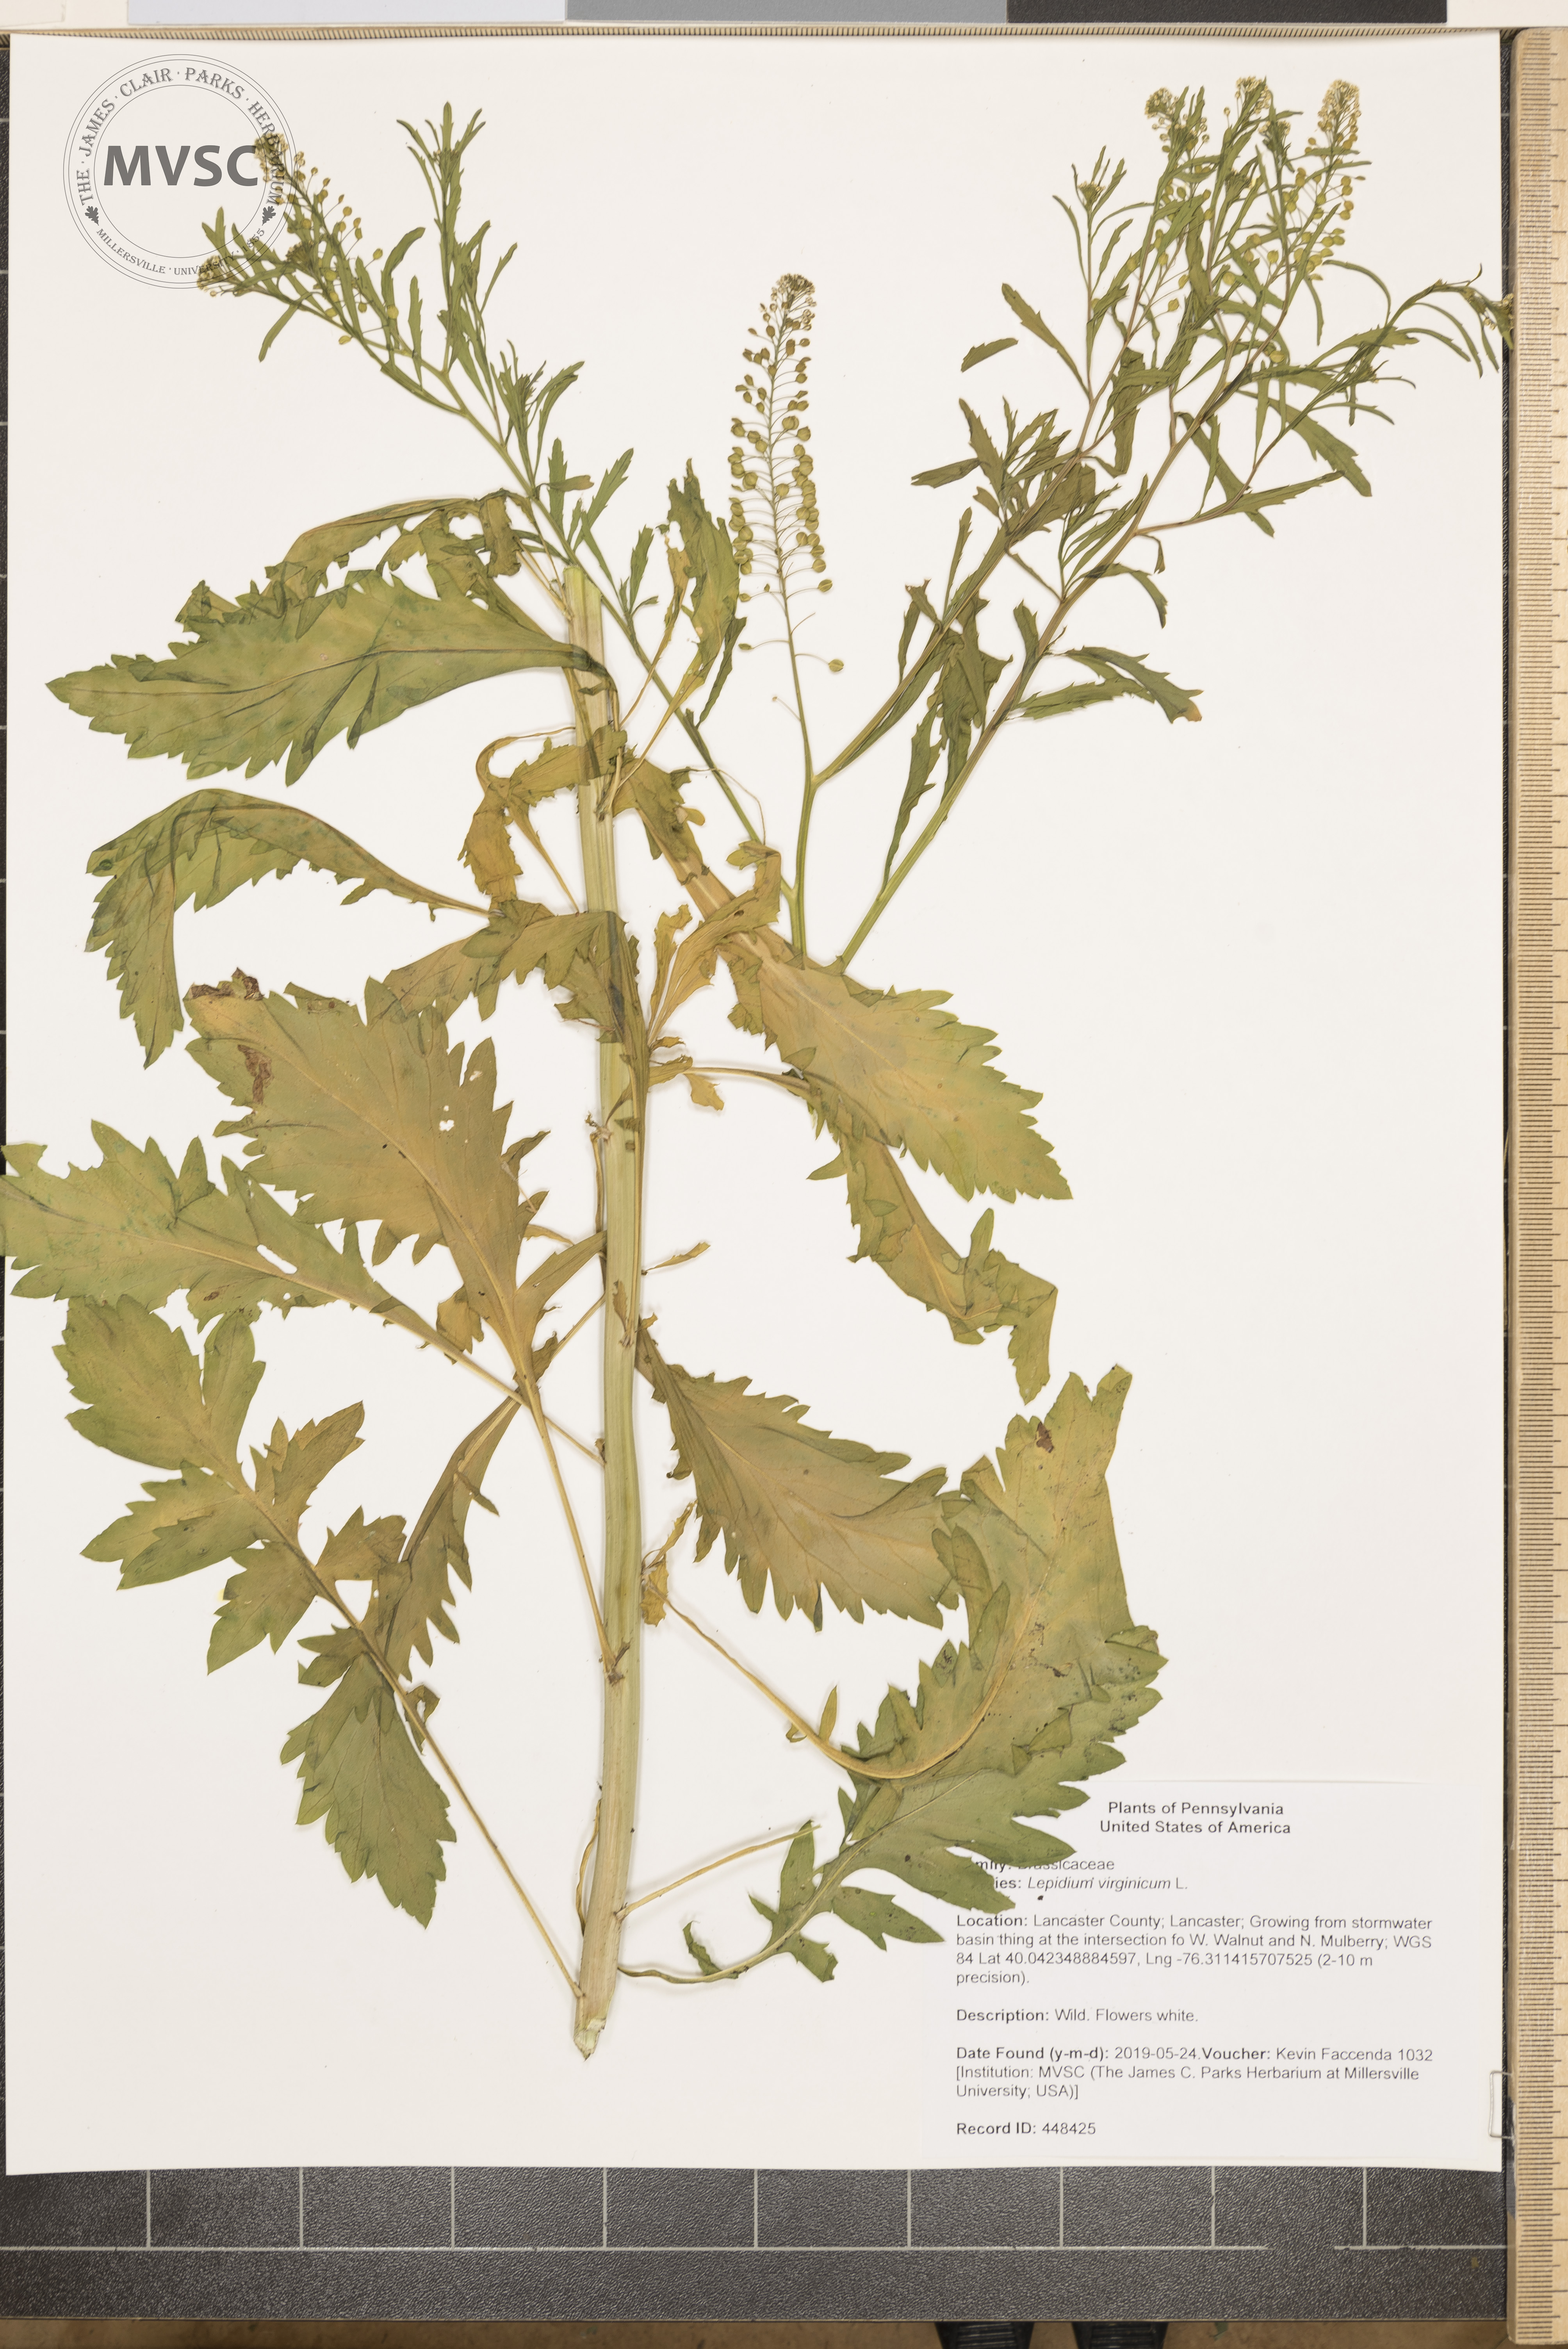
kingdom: Plantae
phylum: Tracheophyta
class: Magnoliopsida
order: Brassicales
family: Brassicaceae
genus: Lepidium
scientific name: Lepidium virginicum
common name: Least pepperwort
